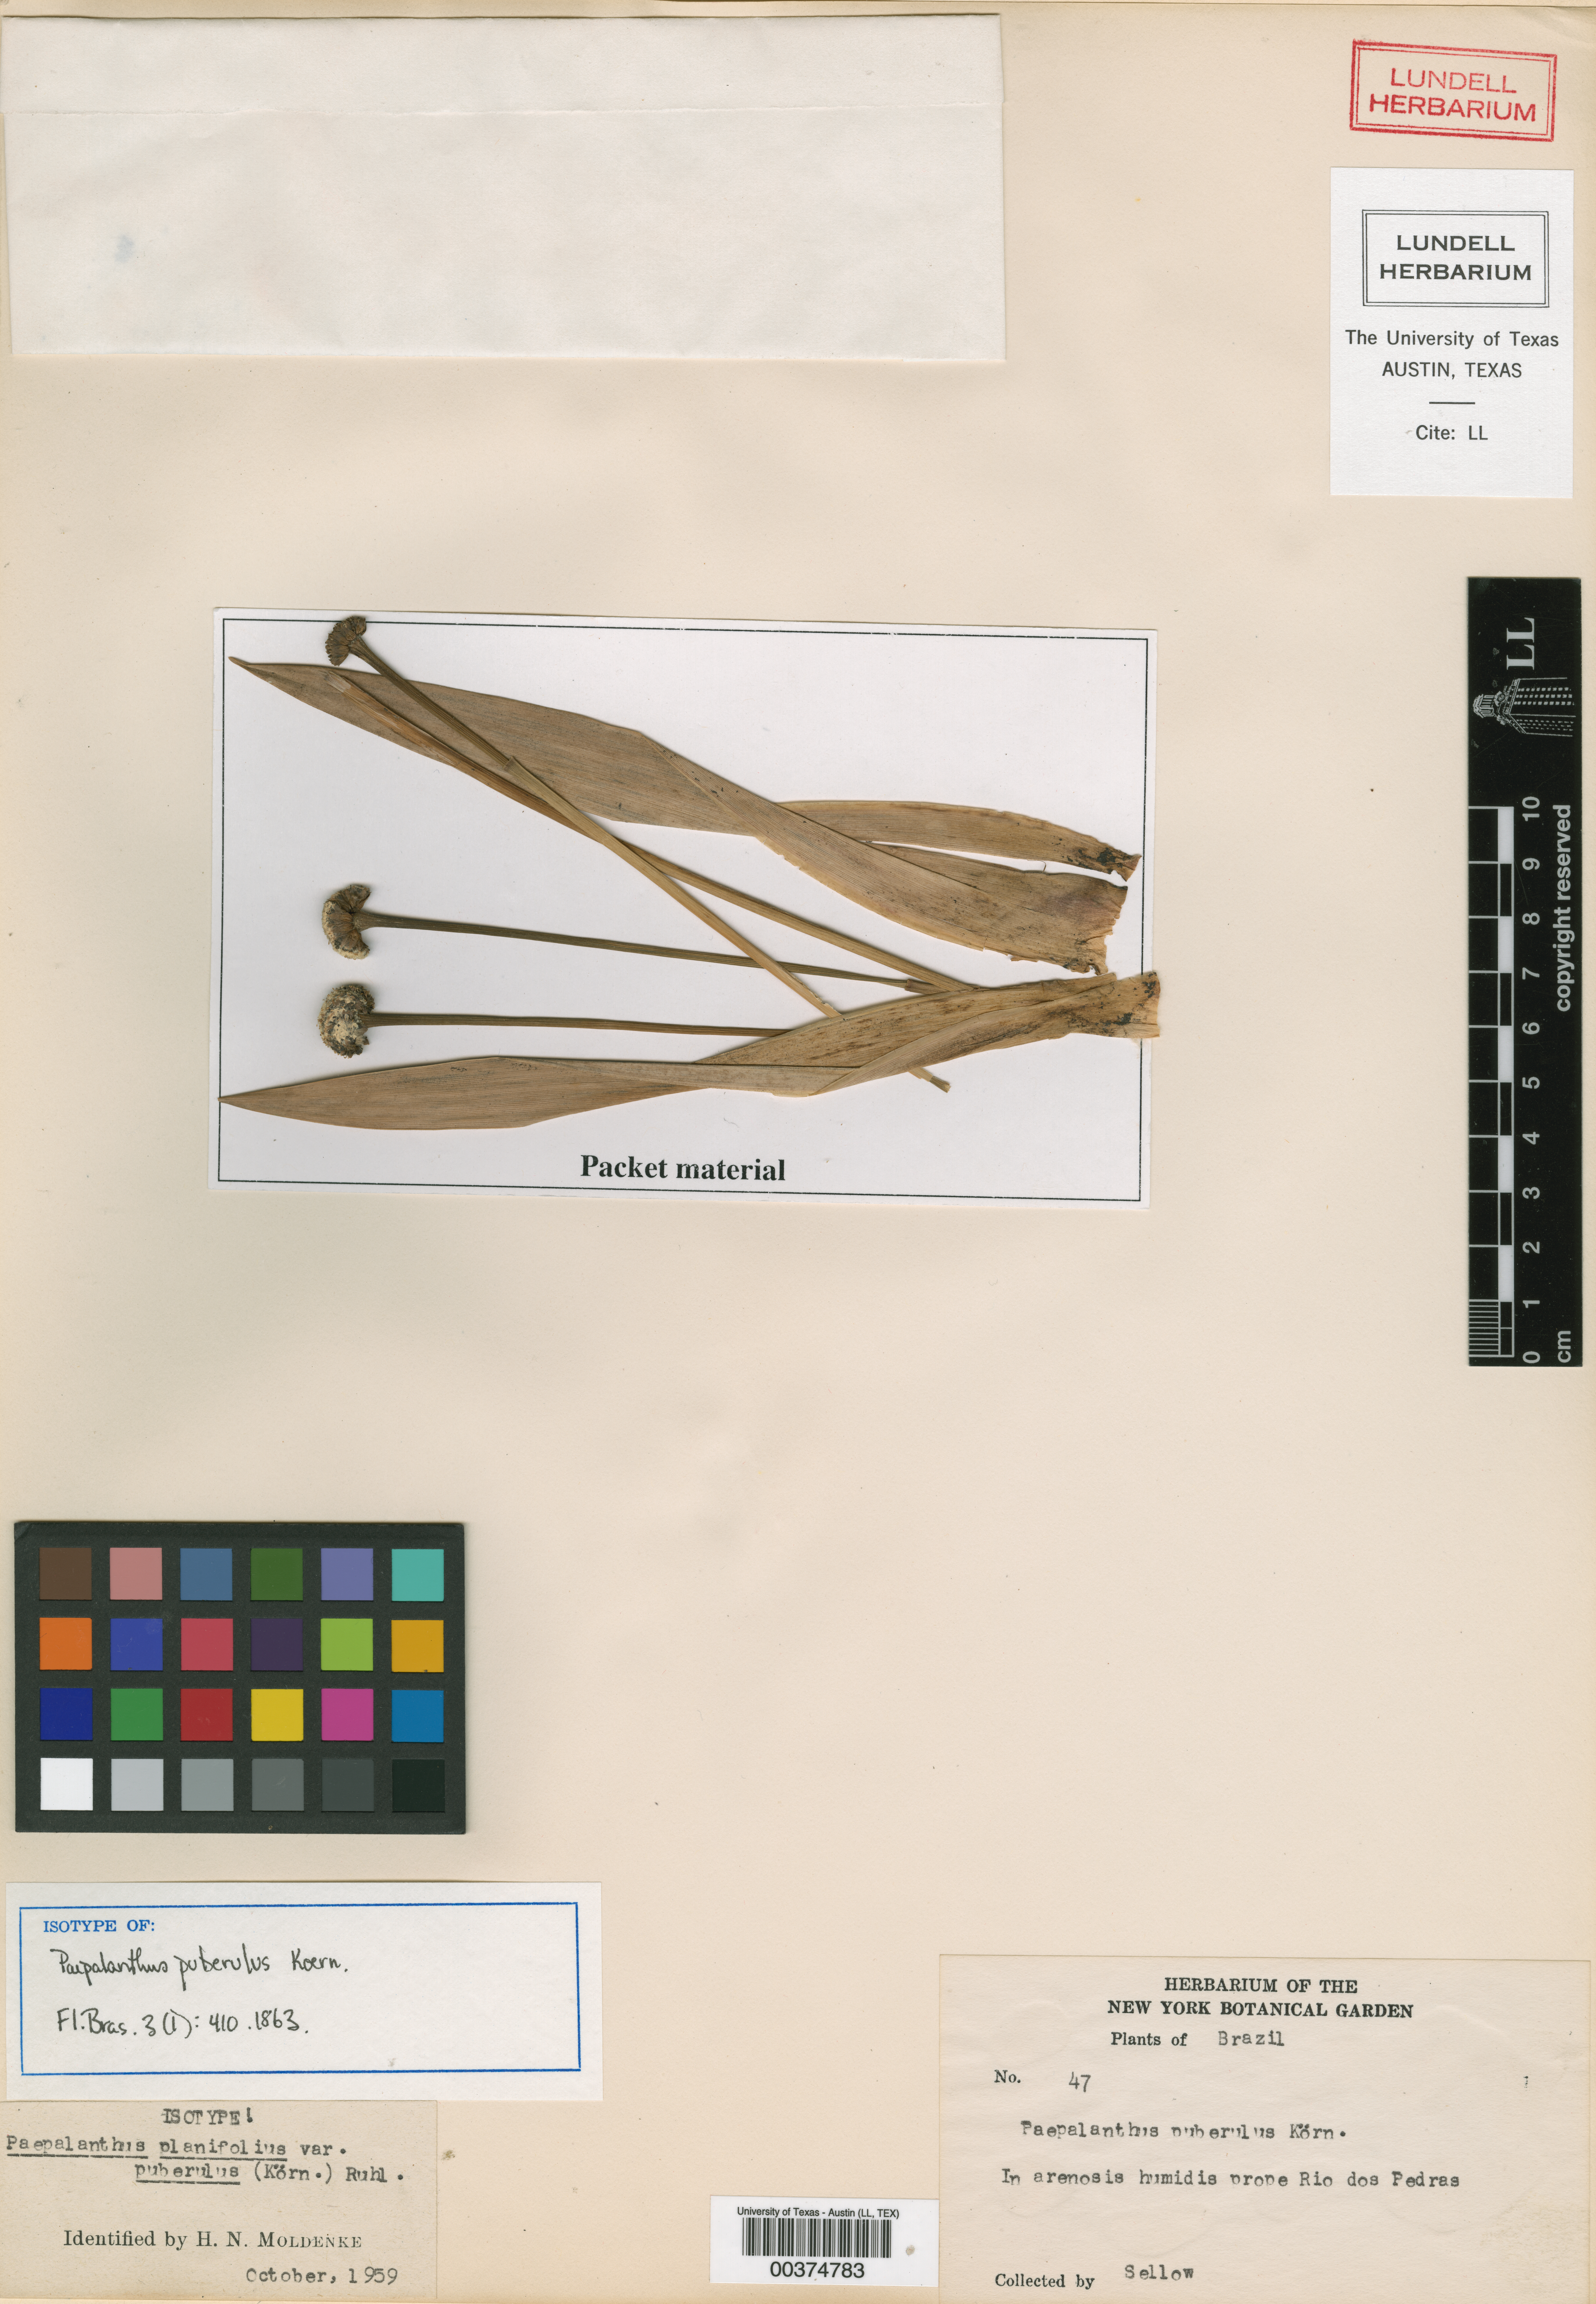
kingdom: Plantae
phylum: Tracheophyta
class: Liliopsida
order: Poales
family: Eriocaulaceae
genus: Paepalanthus
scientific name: Paepalanthus planifolius
